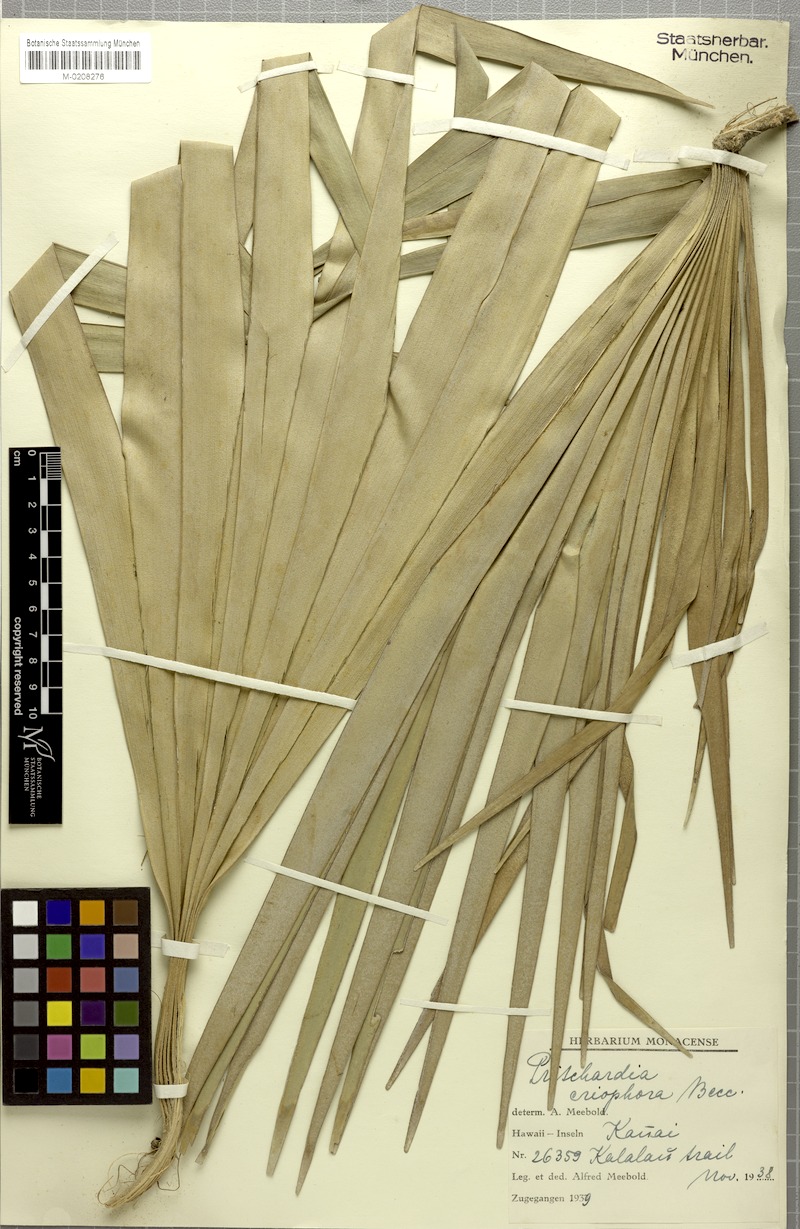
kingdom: Plantae
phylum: Tracheophyta
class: Liliopsida
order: Arecales
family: Arecaceae
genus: Pritchardia
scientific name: Pritchardia minor
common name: Alakai swamp pritchardia
